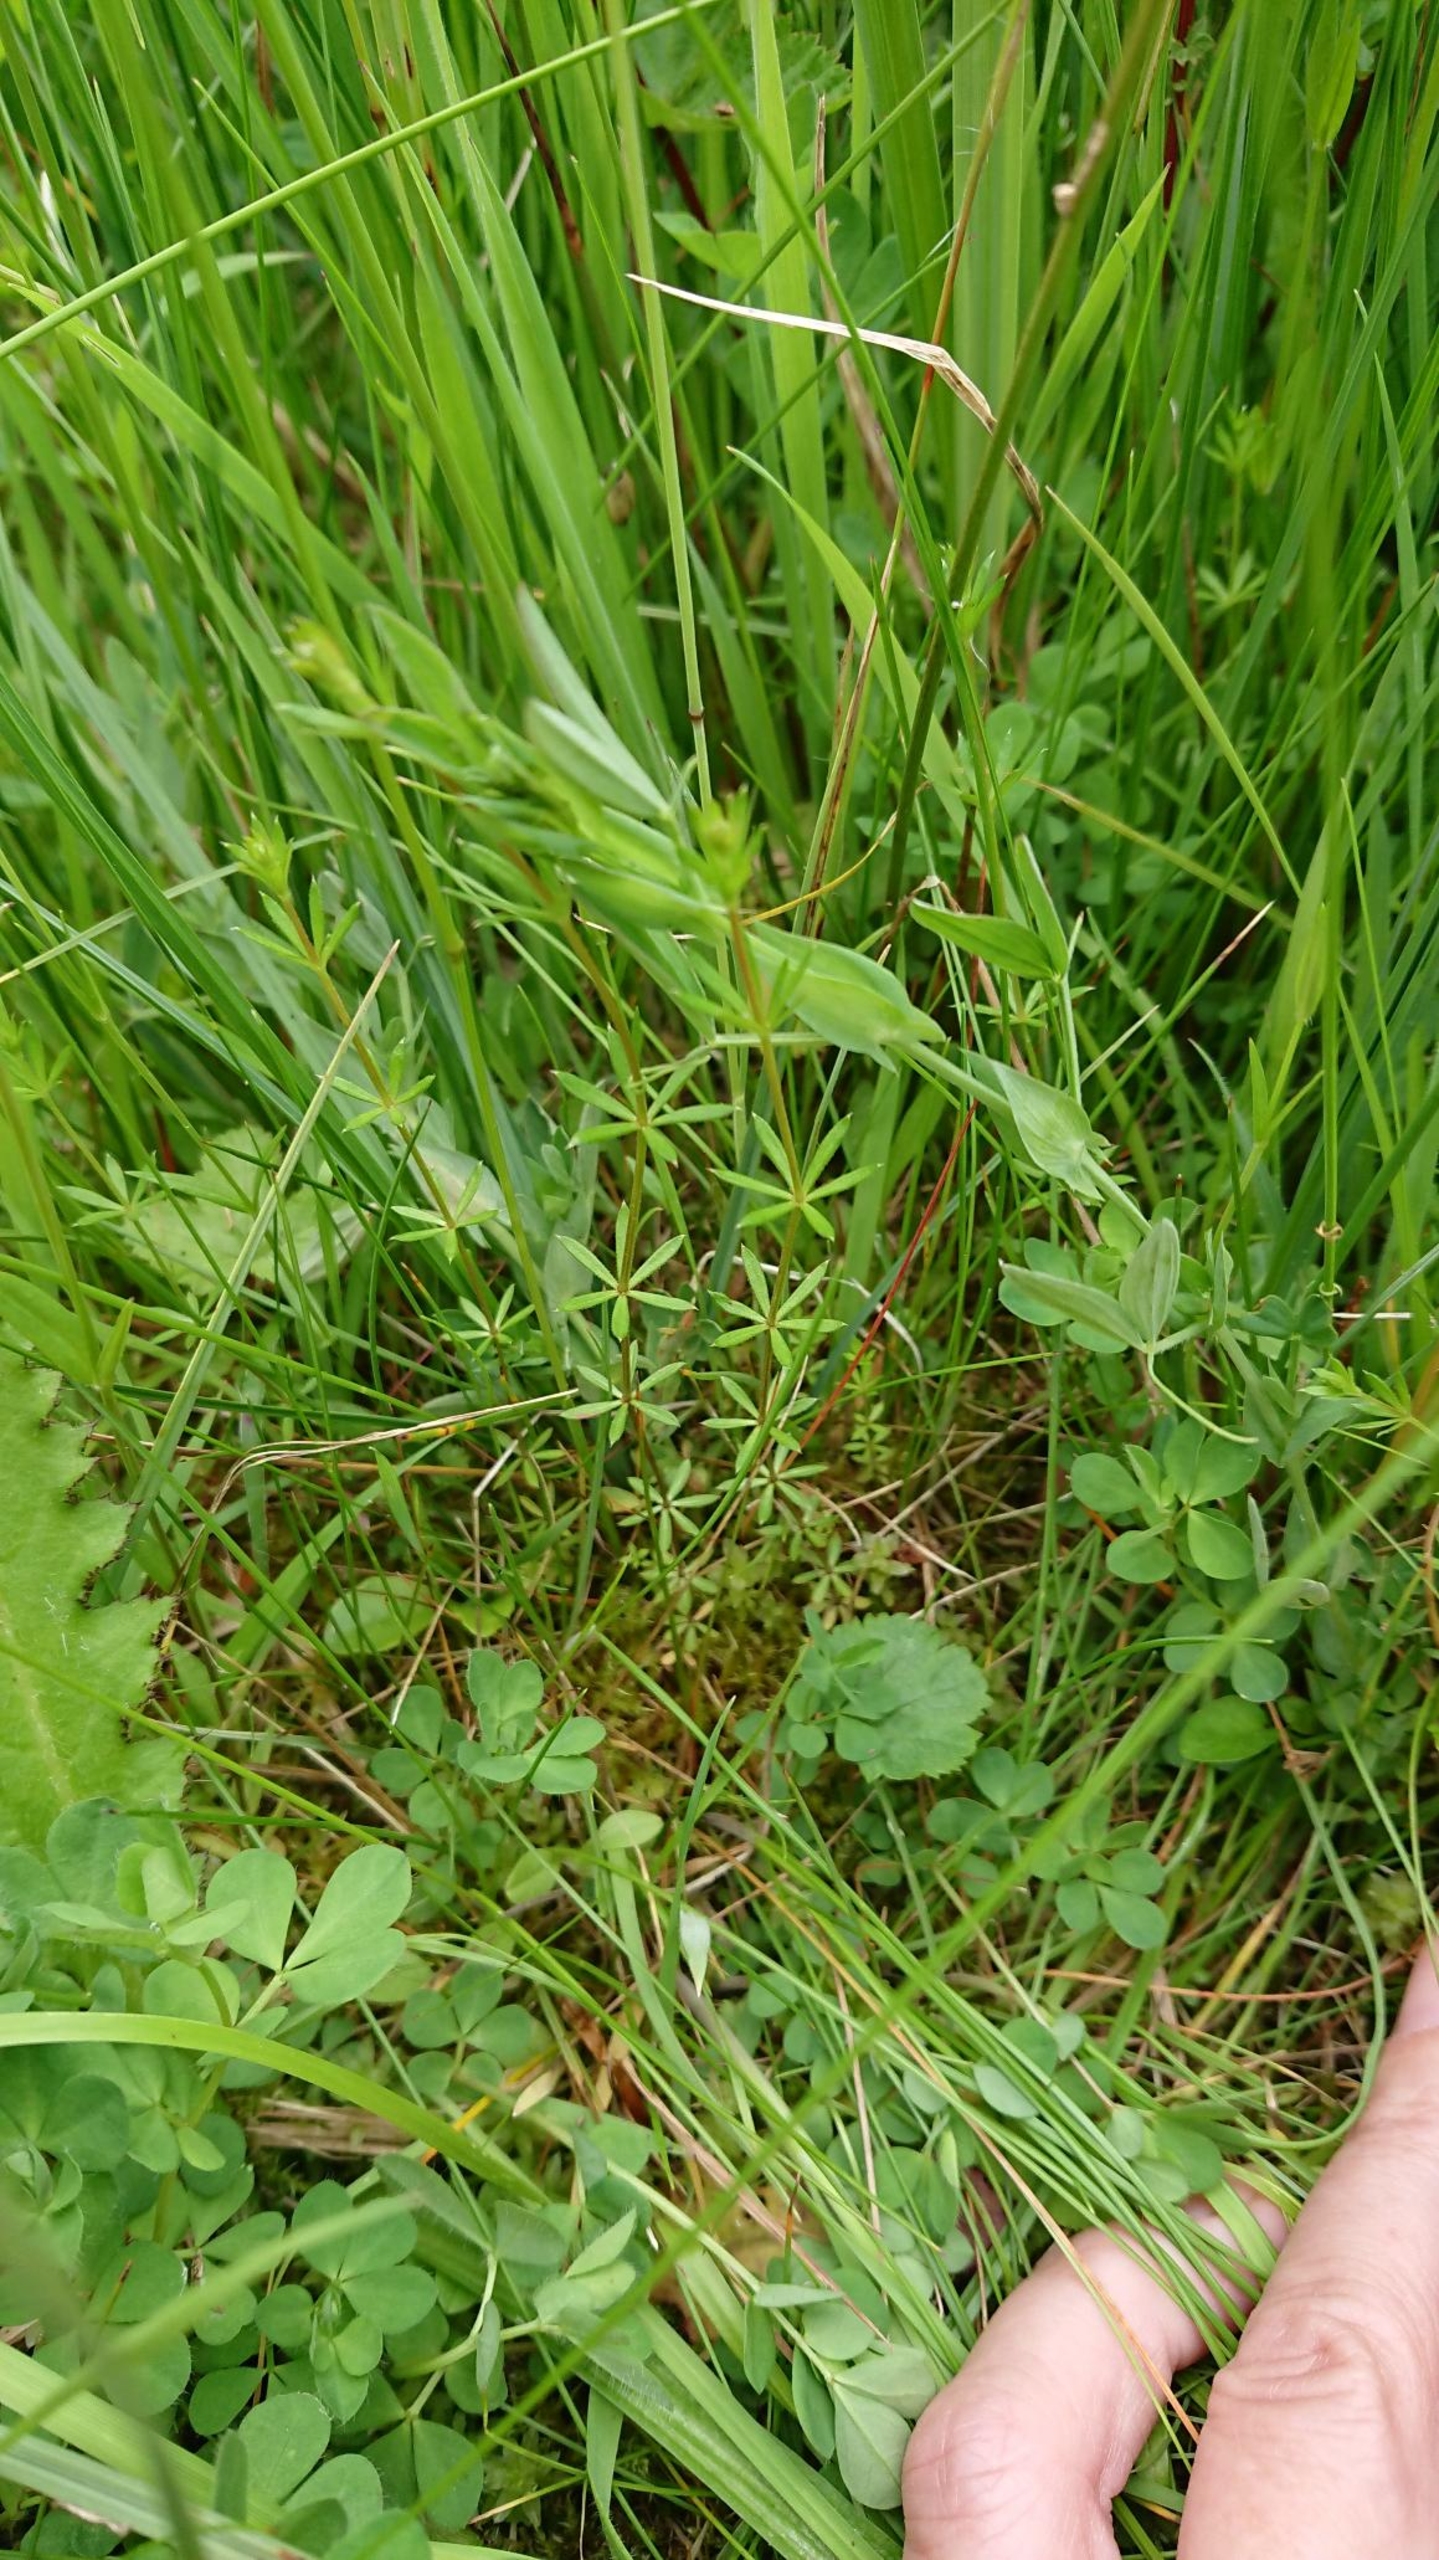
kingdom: Plantae
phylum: Tracheophyta
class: Magnoliopsida
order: Gentianales
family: Rubiaceae
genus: Galium
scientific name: Galium uliginosum
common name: Sump-snerre
